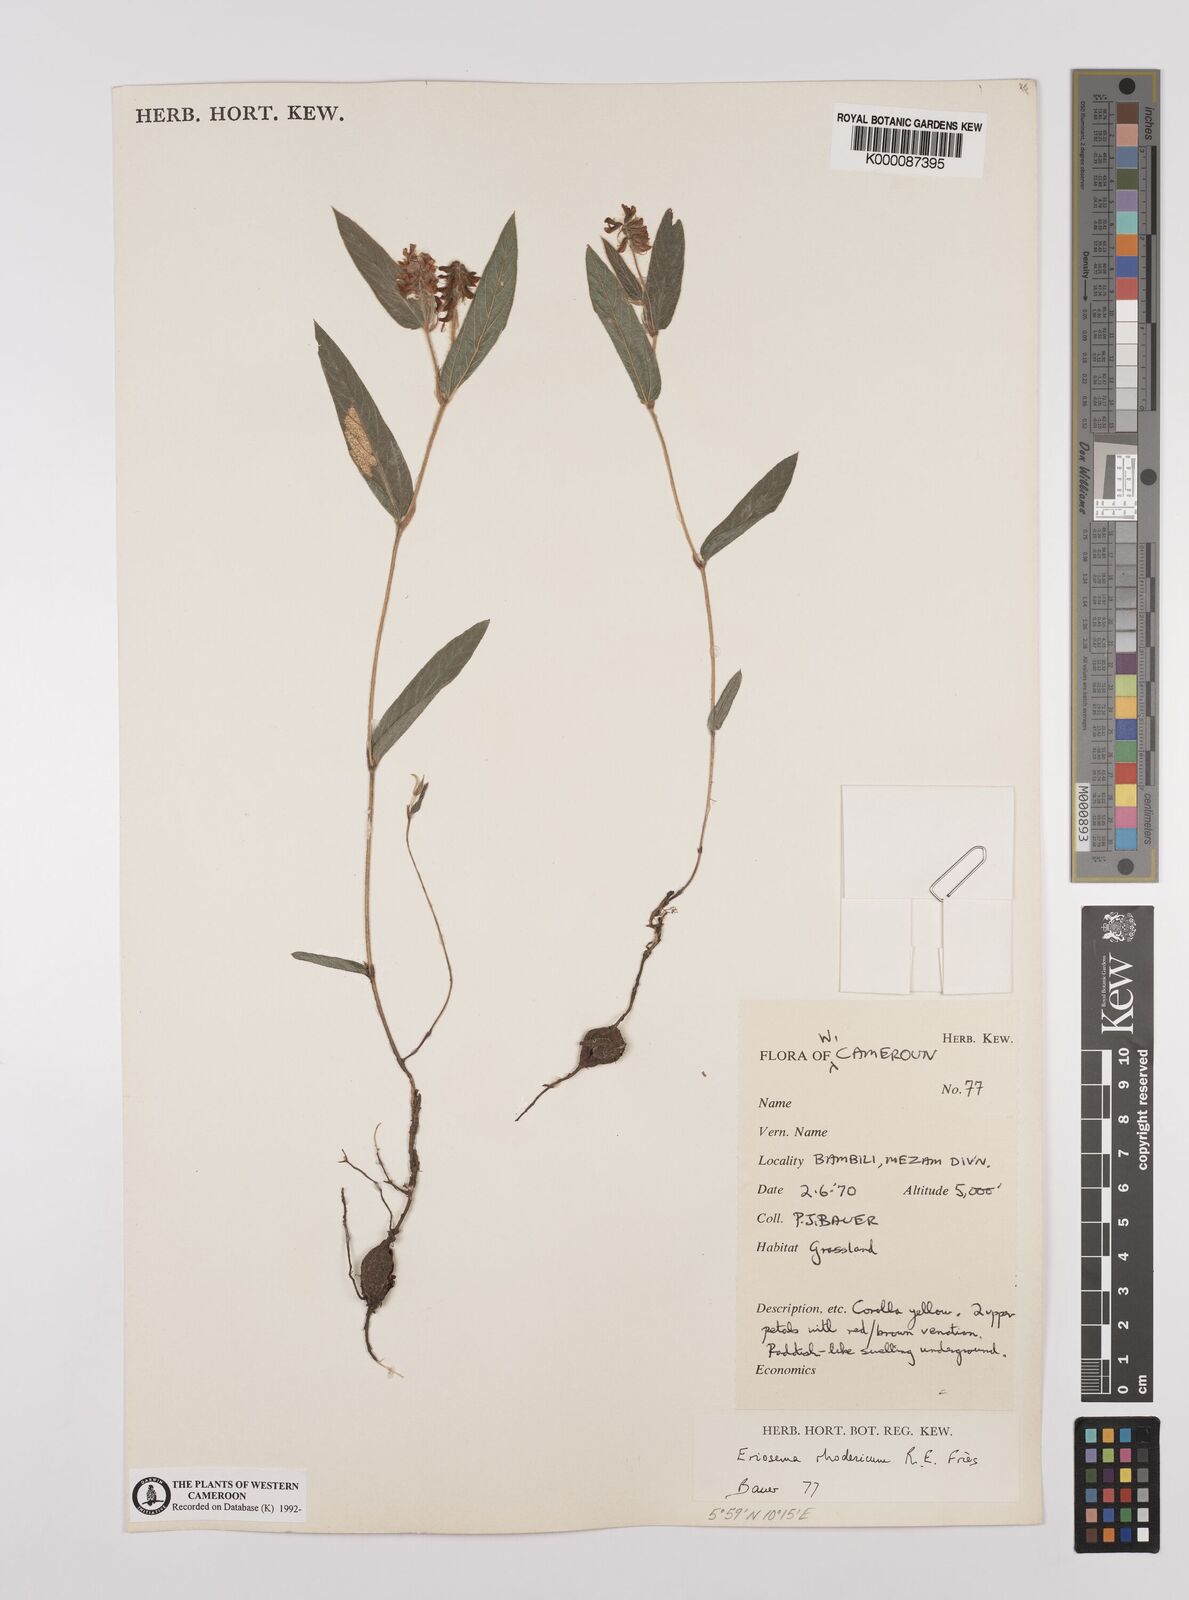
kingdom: Plantae
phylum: Tracheophyta
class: Magnoliopsida
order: Fabales
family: Fabaceae
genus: Eriosema
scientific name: Eriosema
